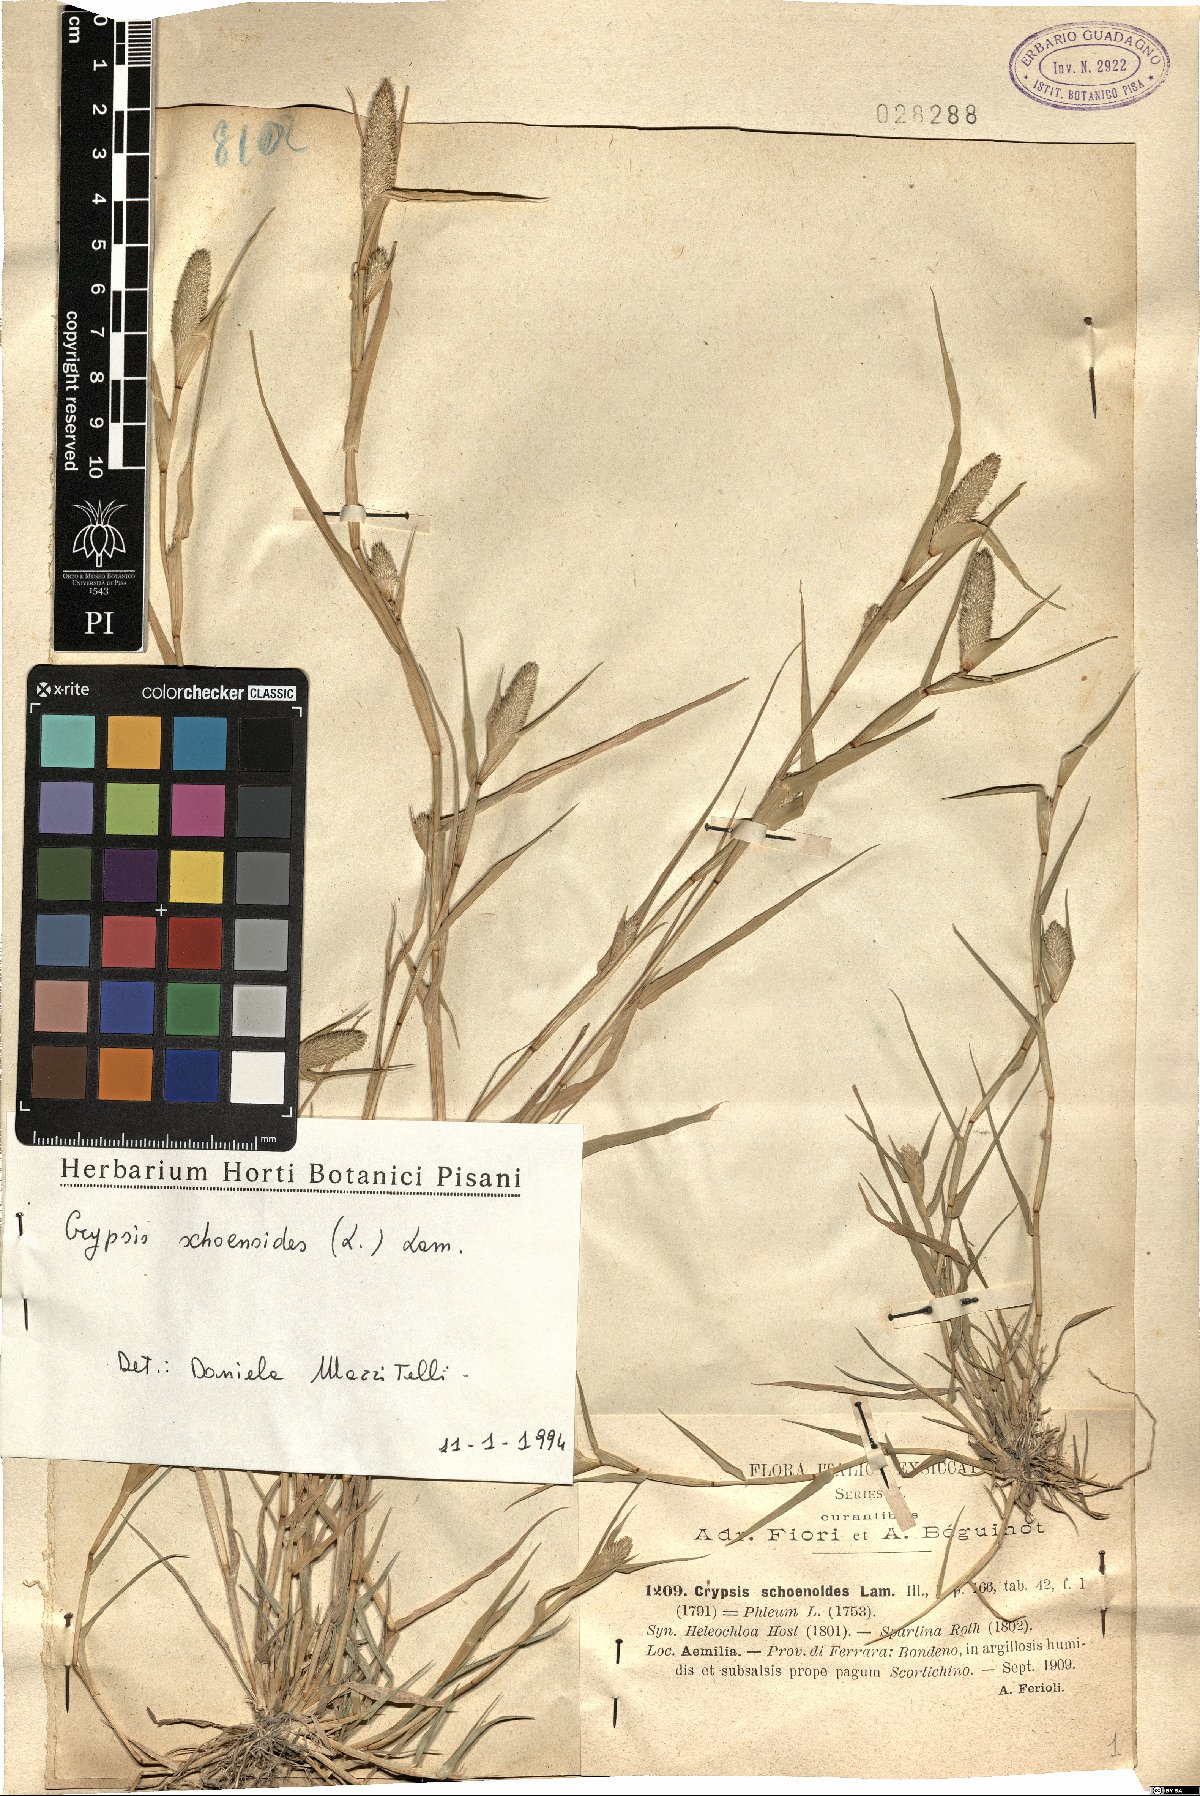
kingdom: Plantae
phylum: Tracheophyta
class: Liliopsida
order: Poales
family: Poaceae
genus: Sporobolus
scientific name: Sporobolus schoenoides
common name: Rush-like timothy
